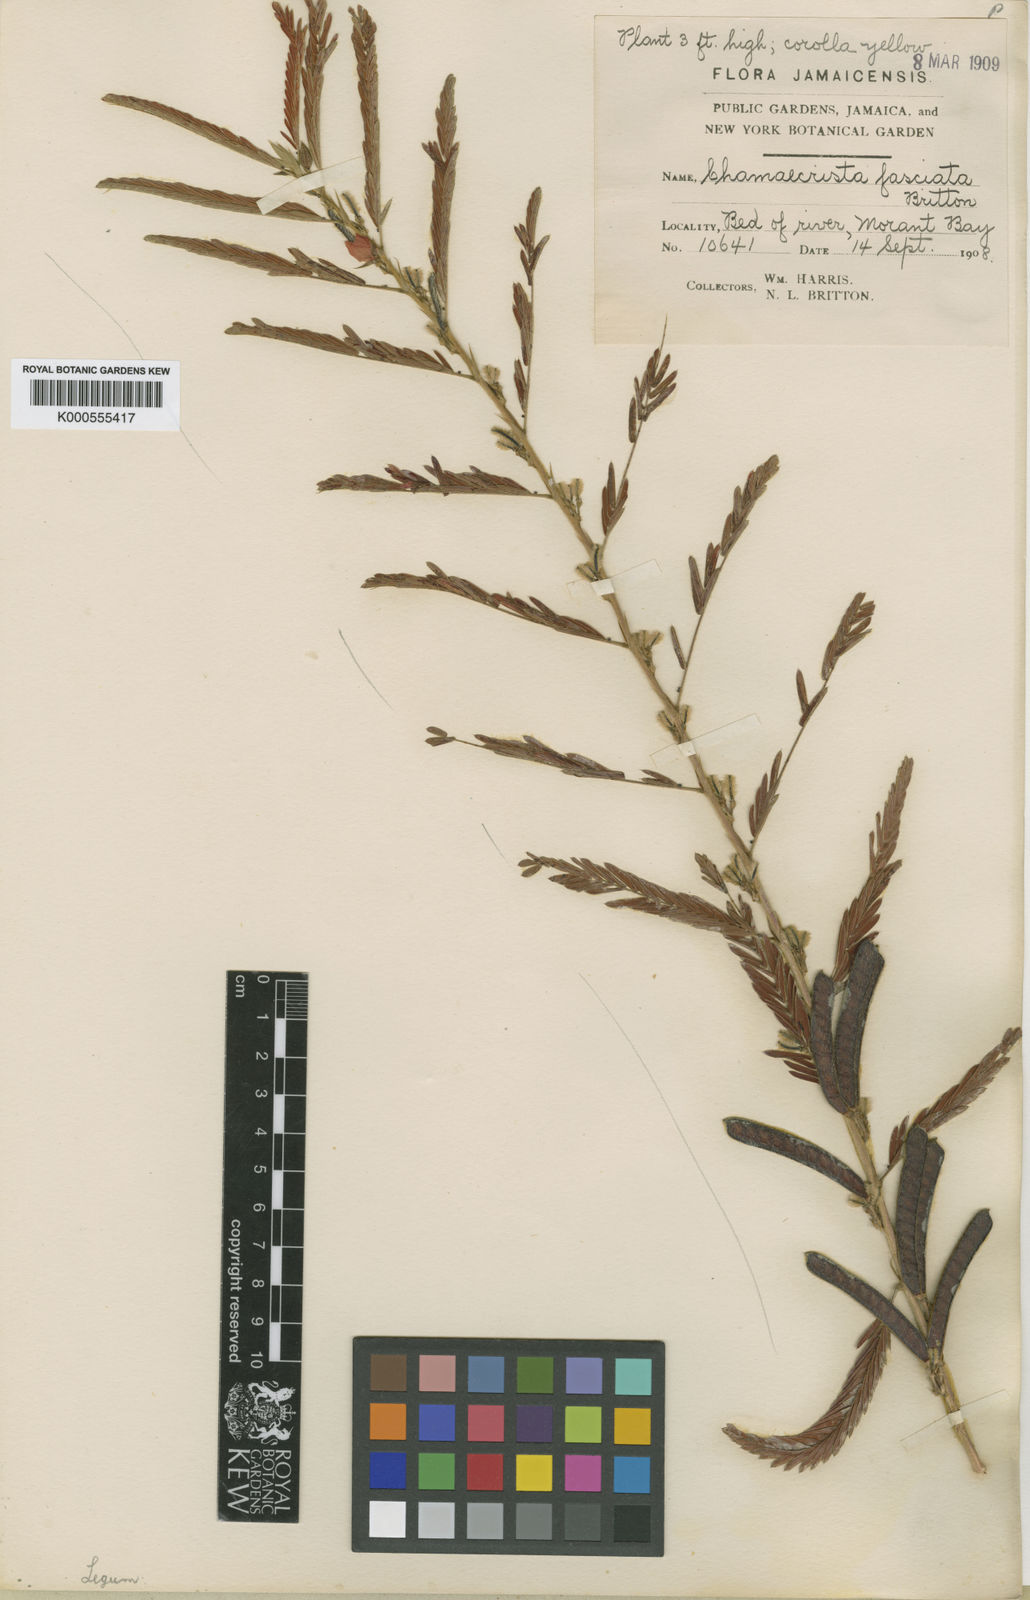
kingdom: Plantae
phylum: Tracheophyta
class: Magnoliopsida
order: Fabales
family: Fabaceae
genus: Chamaecrista
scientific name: Chamaecrista nictitans
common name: Sensitive cassia
